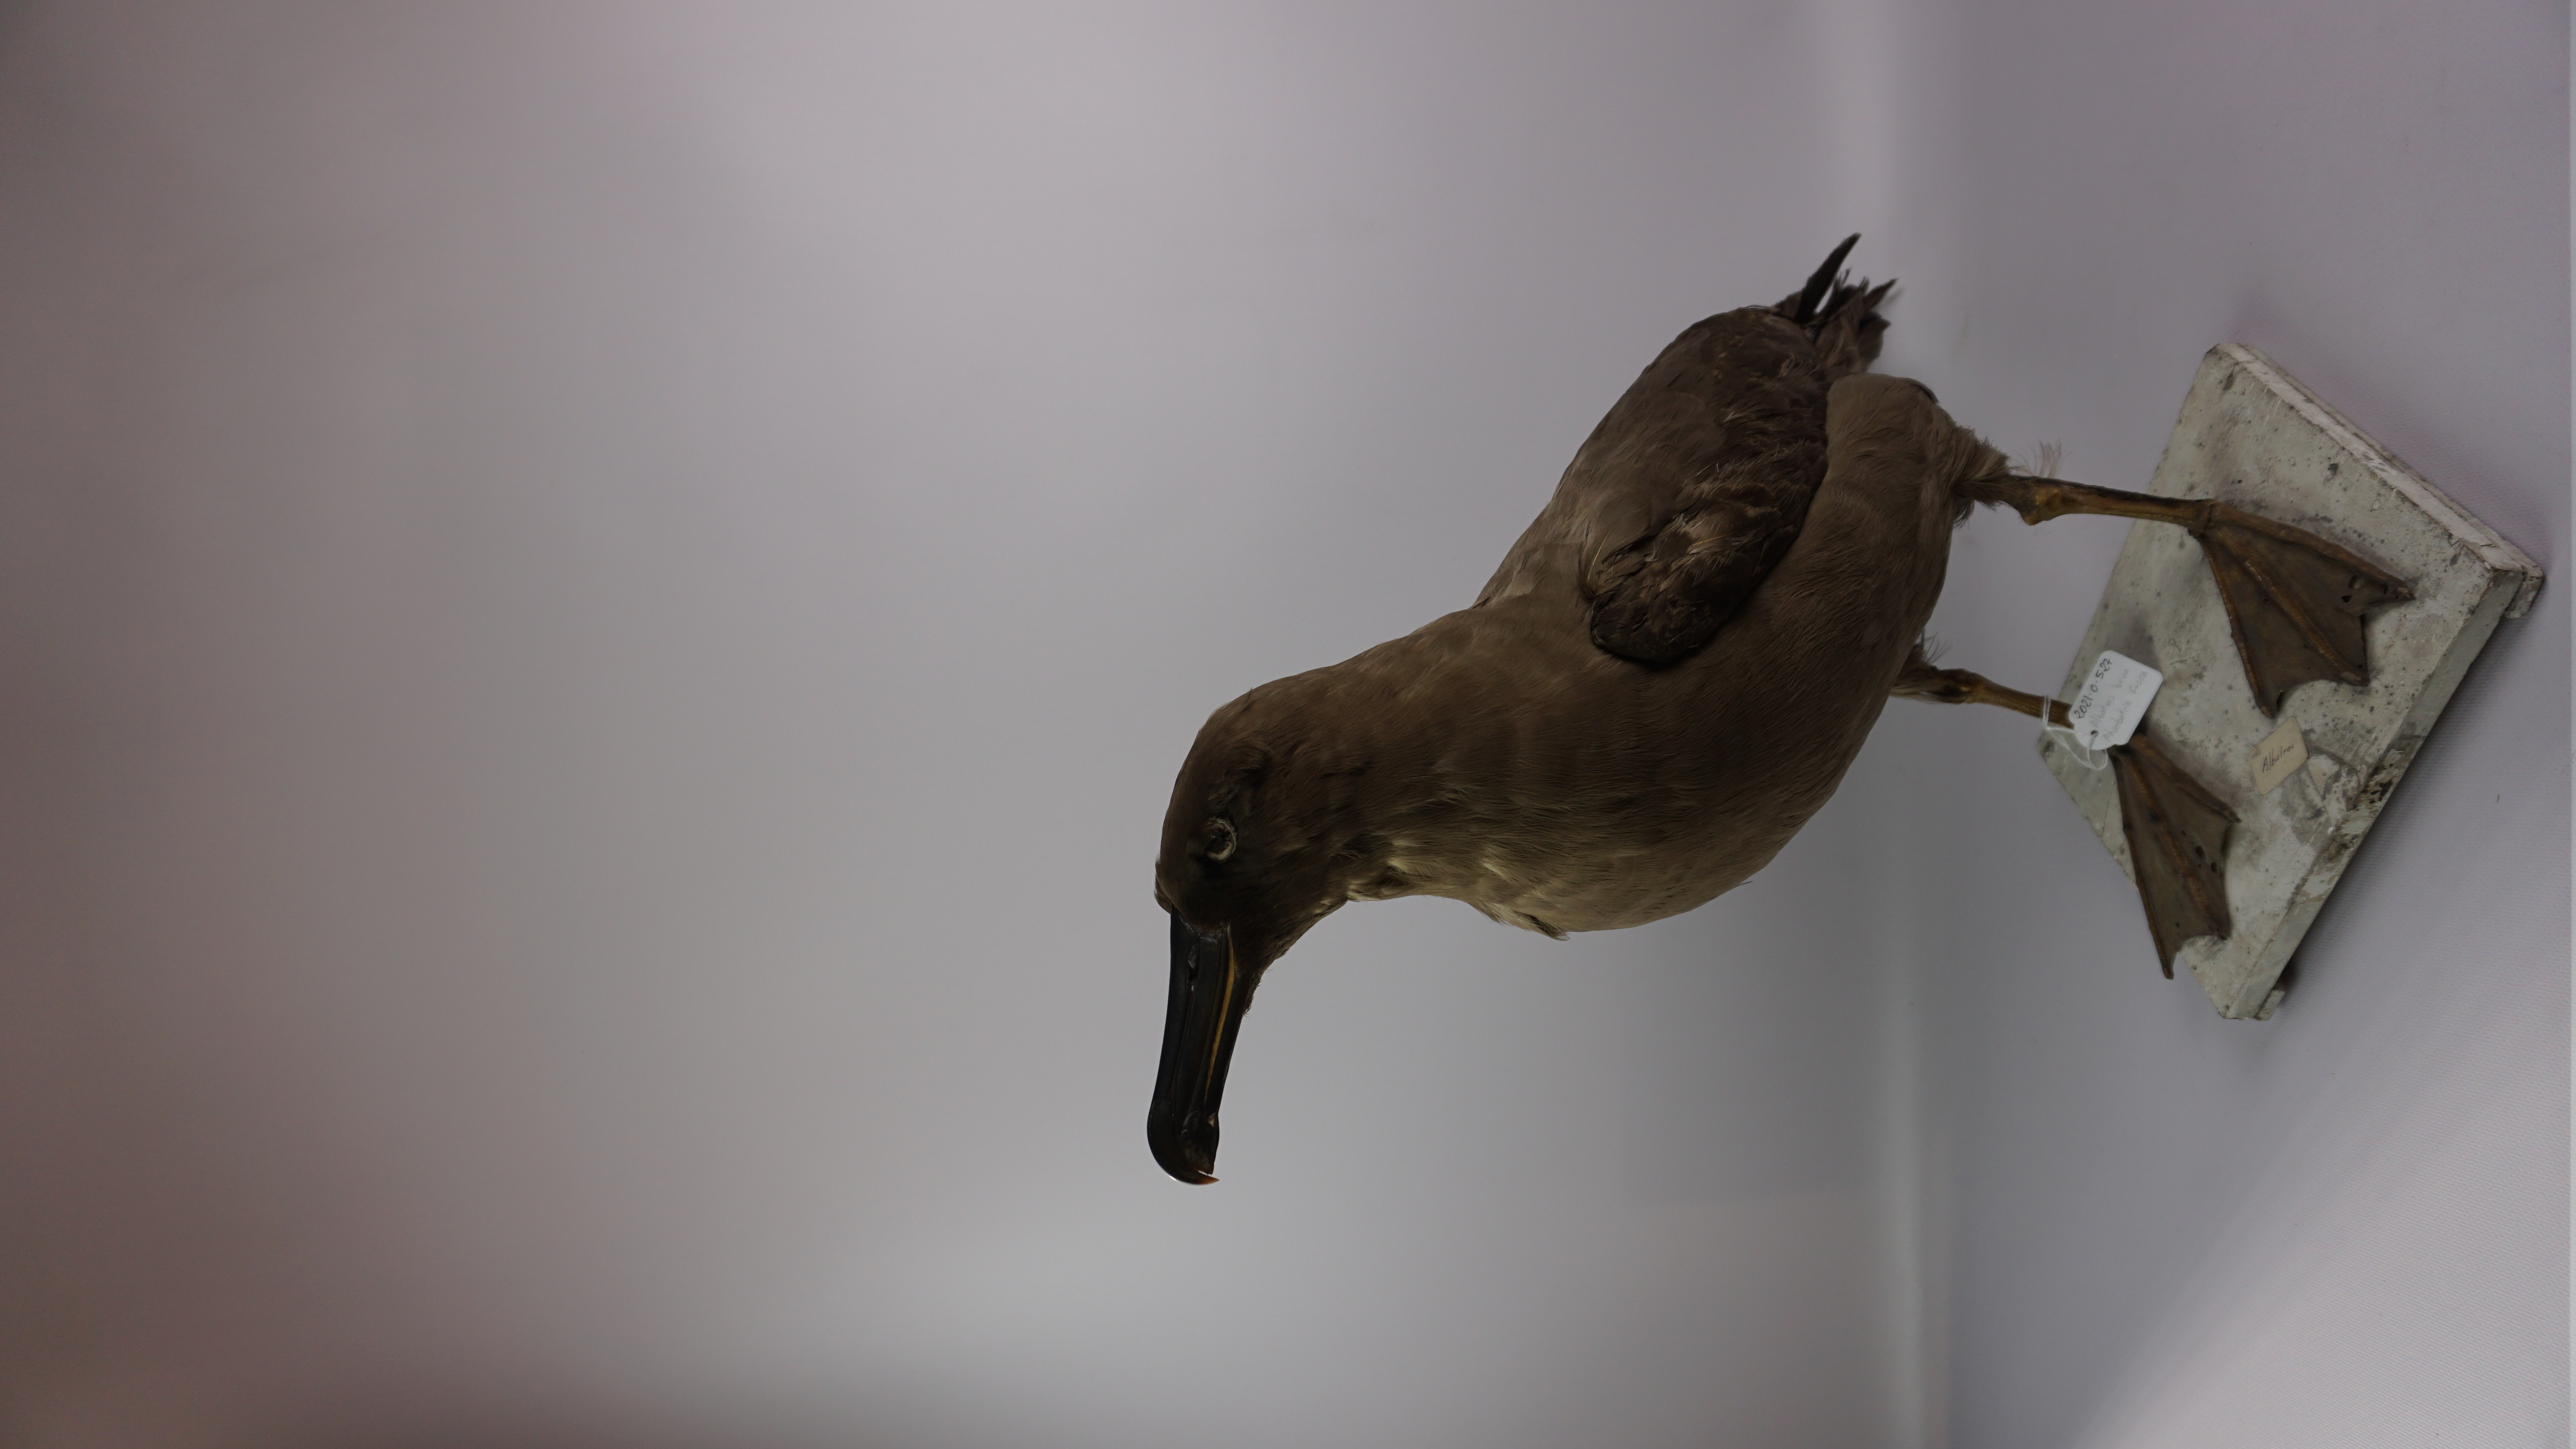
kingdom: Animalia
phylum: Chordata
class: Aves
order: Procellariiformes
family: Diomedeidae
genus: Phoebetria
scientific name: Phoebetria fusca
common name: Sooty albatross
